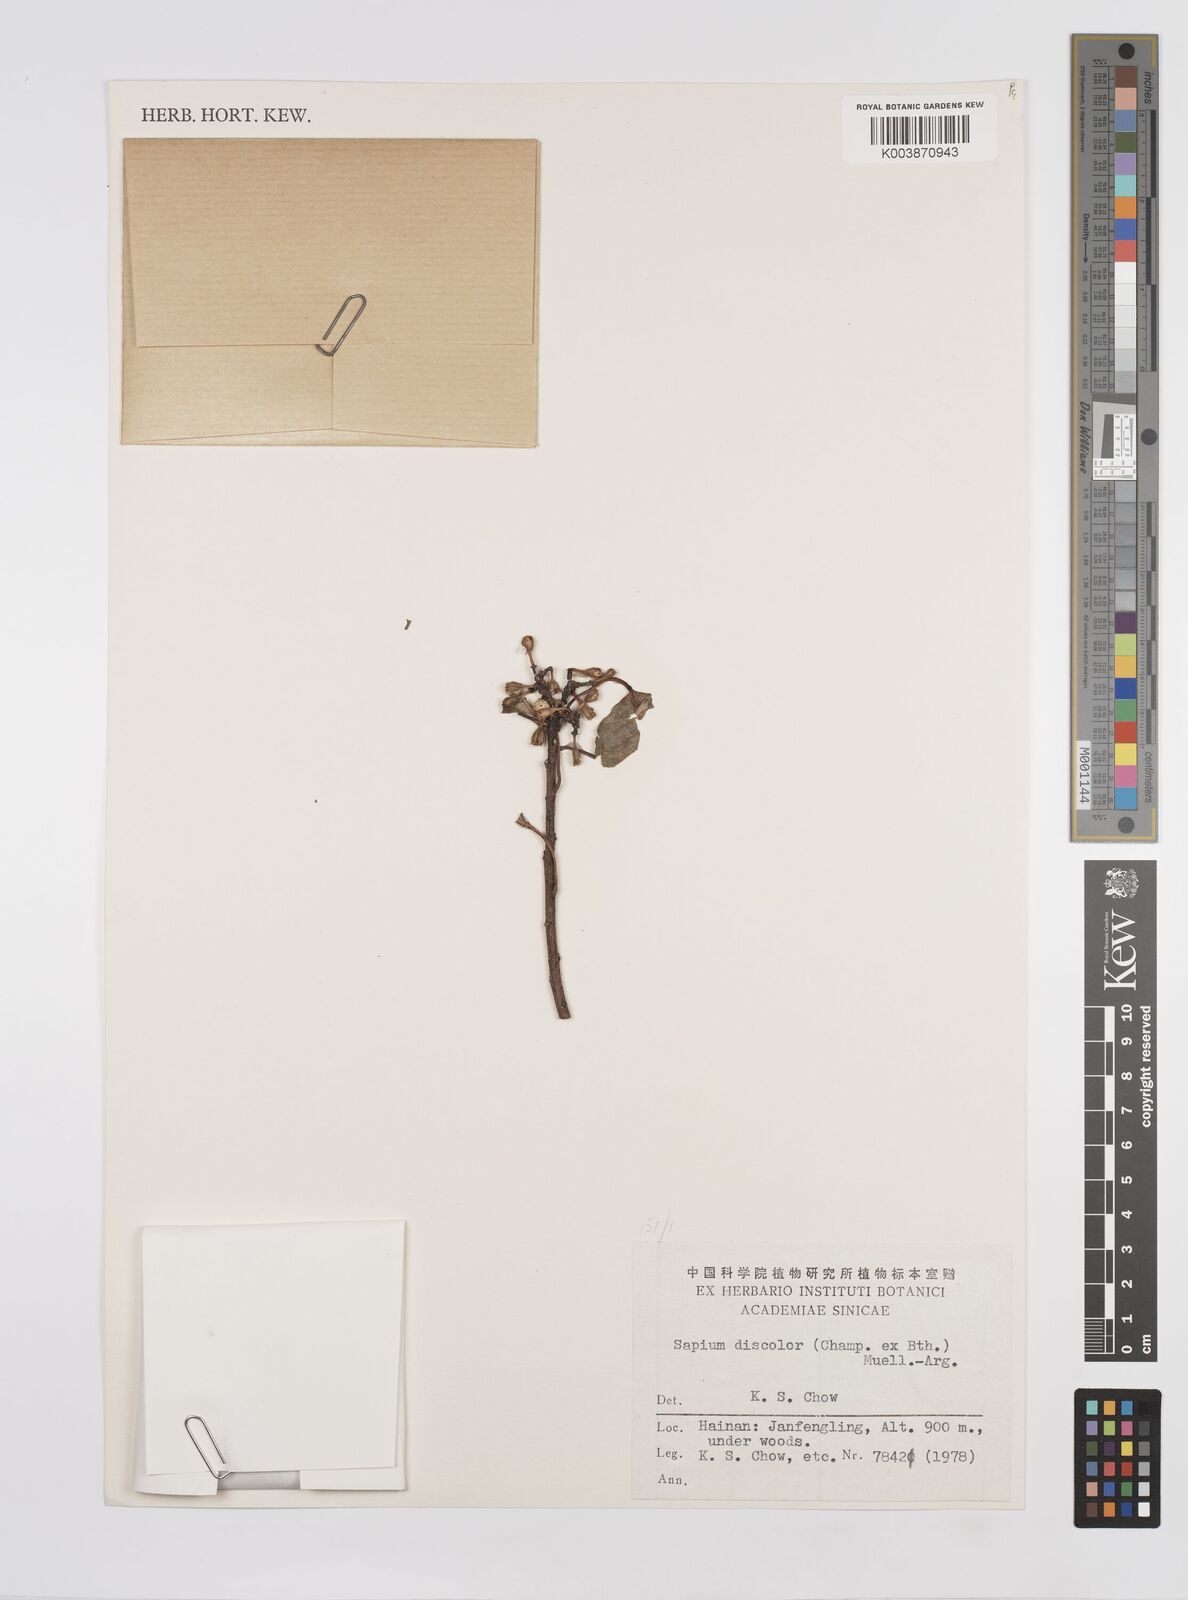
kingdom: Plantae
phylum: Tracheophyta
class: Magnoliopsida
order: Malpighiales
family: Euphorbiaceae
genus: Triadica
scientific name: Triadica cochinchinensis
